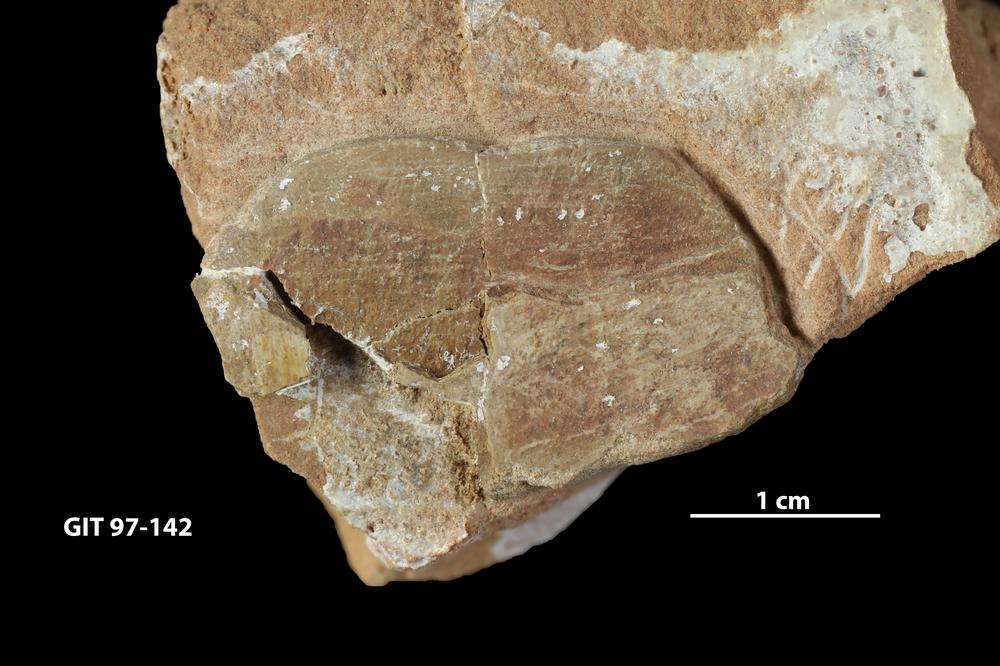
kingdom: Animalia
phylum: Chordata
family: Holonematidae
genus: Holonema
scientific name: Holonema
